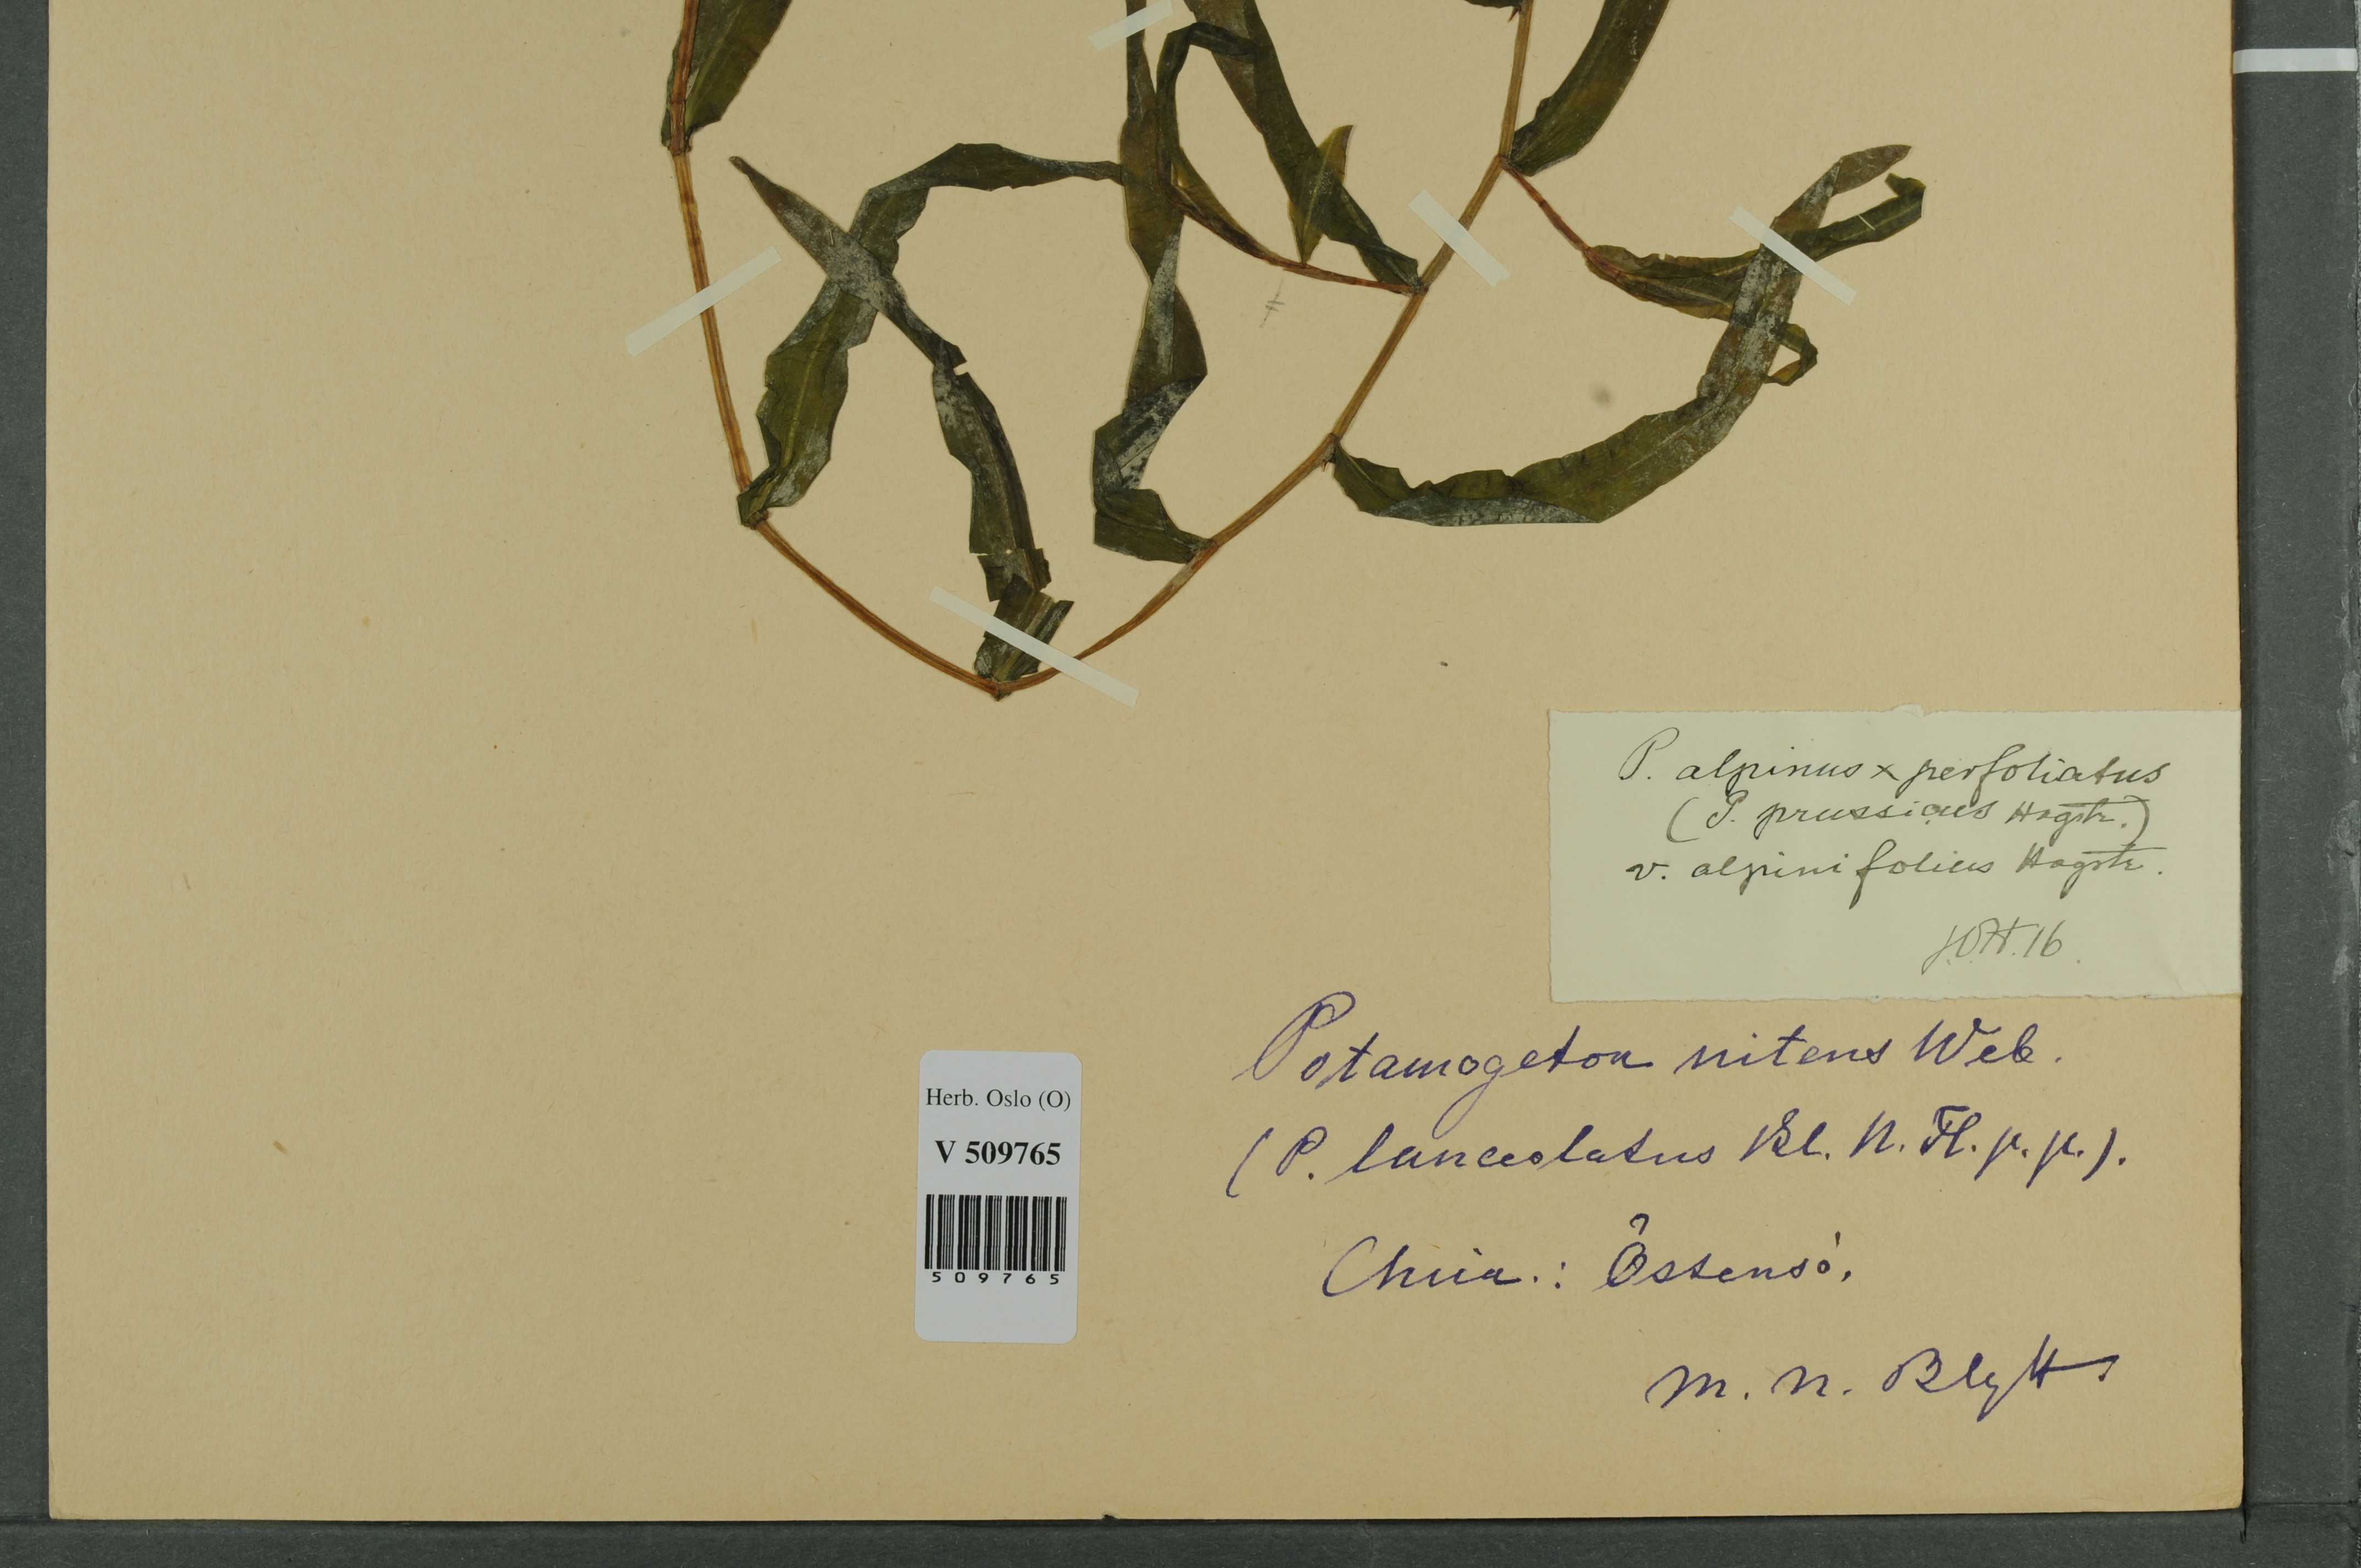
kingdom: Plantae
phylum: Tracheophyta
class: Liliopsida
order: Alismatales
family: Potamogetonaceae
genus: Potamogeton
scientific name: Potamogeton prussicus
